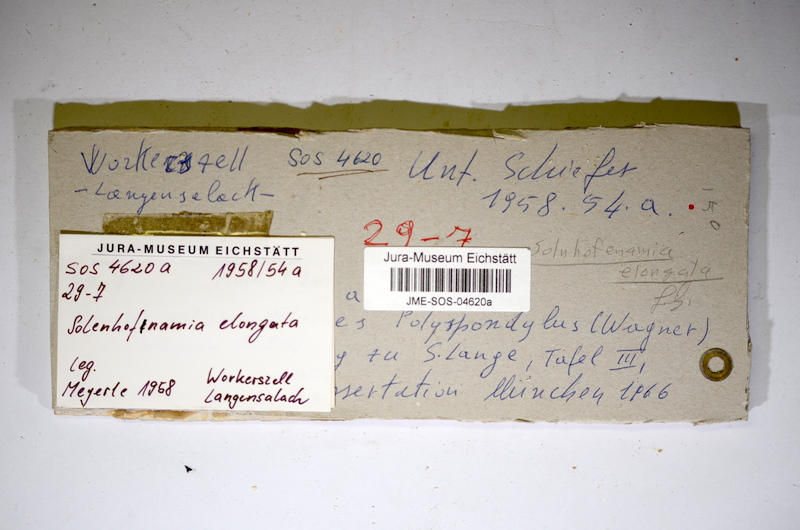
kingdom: Animalia
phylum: Chordata
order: Amiiformes
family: Amiidae
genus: Solnhofenamia
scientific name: Solnhofenamia elongata
